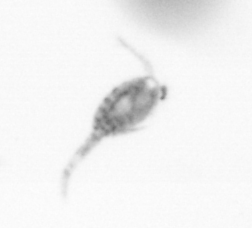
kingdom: Animalia
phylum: Arthropoda
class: Copepoda
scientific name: Copepoda
